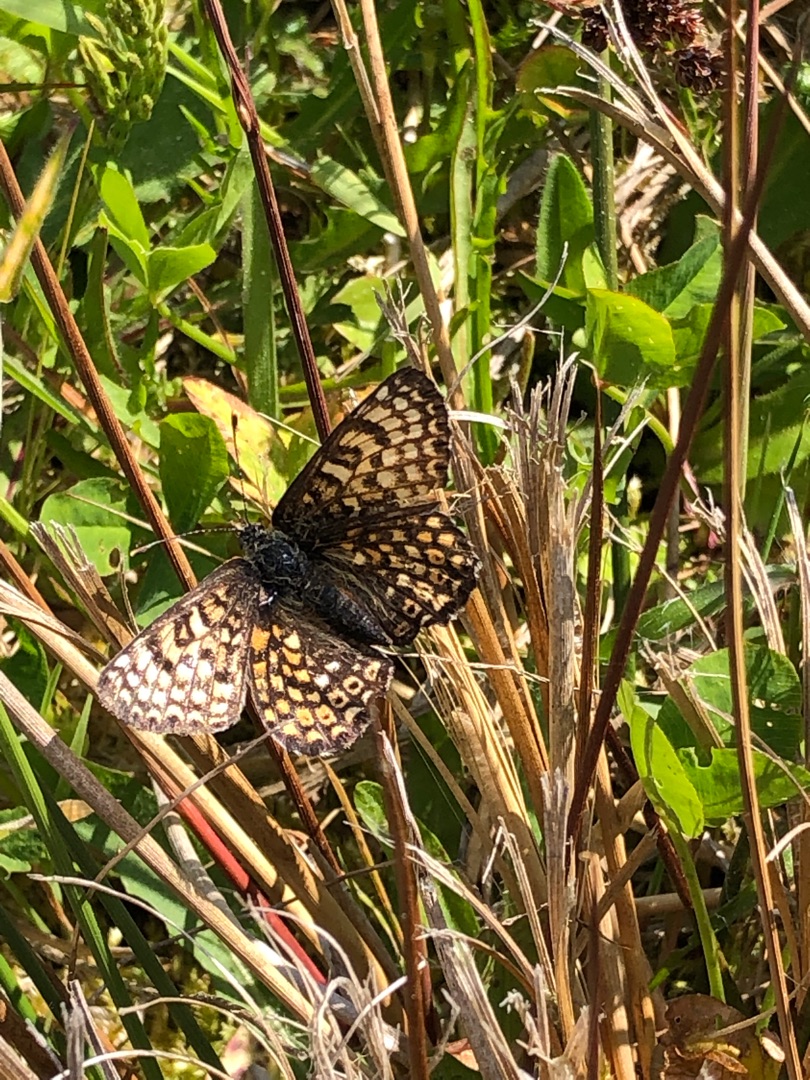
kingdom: Animalia
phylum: Arthropoda
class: Insecta
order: Lepidoptera
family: Nymphalidae
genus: Melitaea
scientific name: Melitaea cinxia
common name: Okkergul pletvinge
